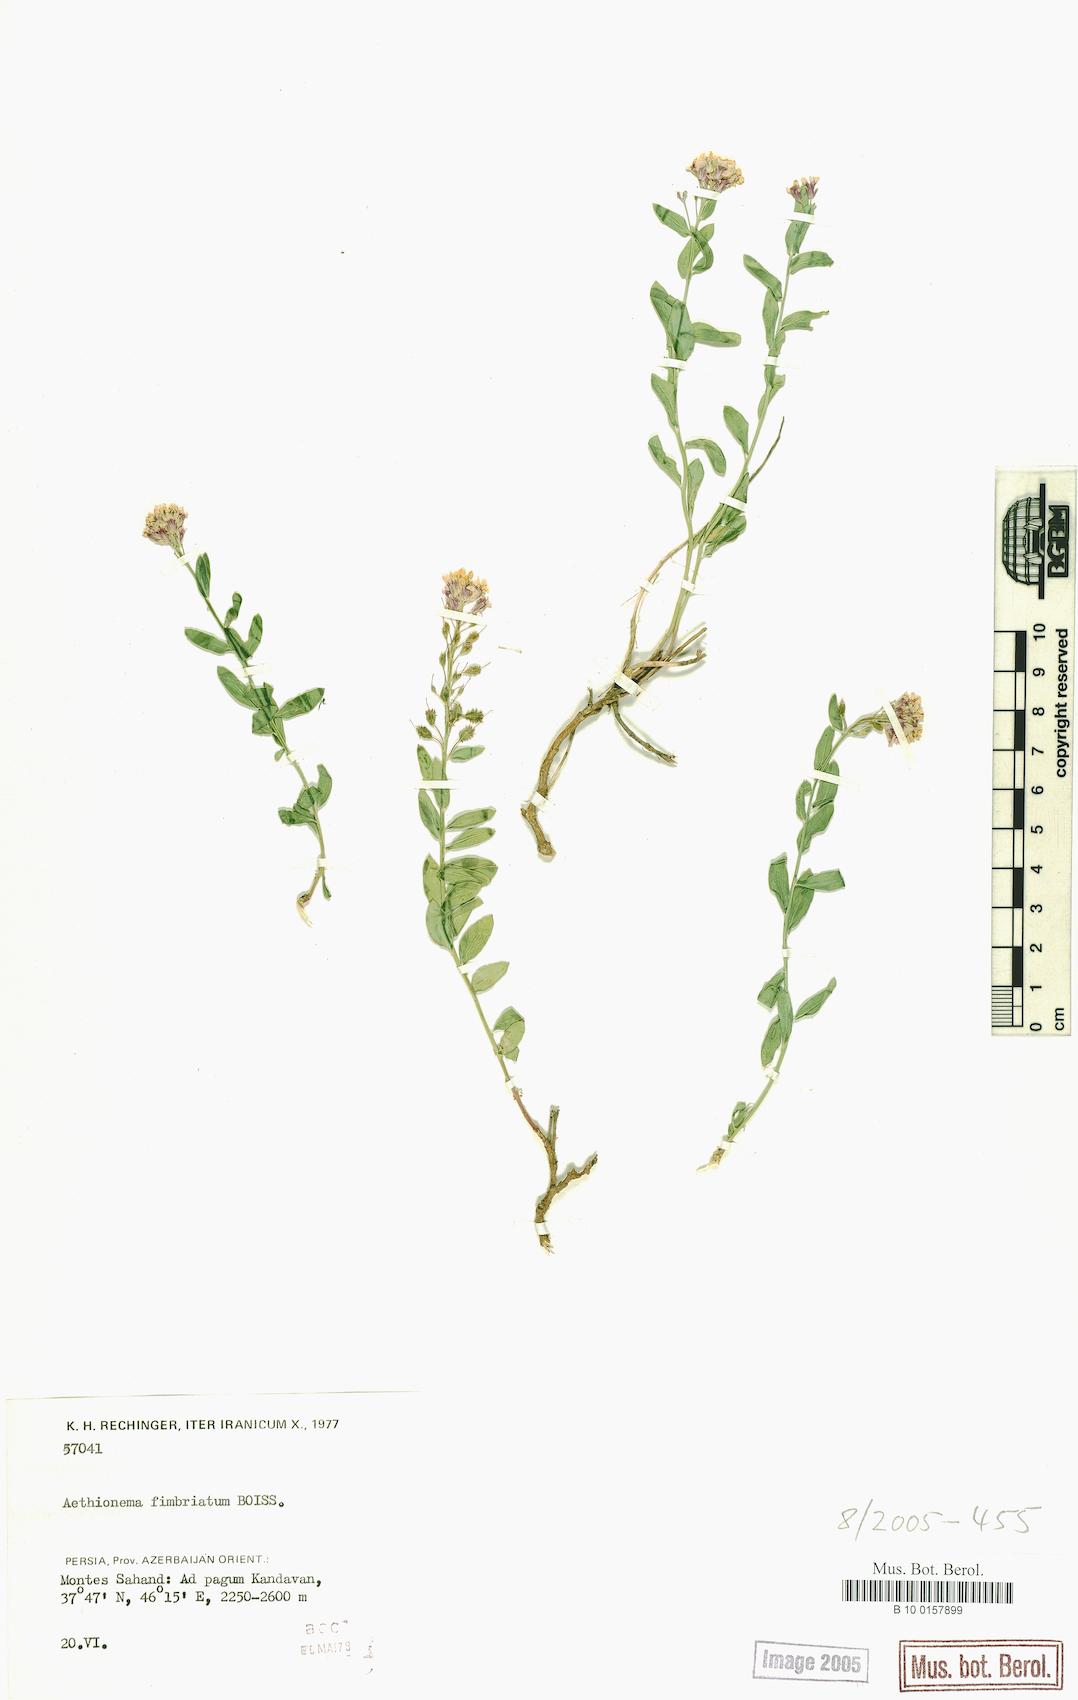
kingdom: Plantae
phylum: Tracheophyta
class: Magnoliopsida
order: Brassicales
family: Brassicaceae
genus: Aethionema
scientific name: Aethionema fimbriatum
